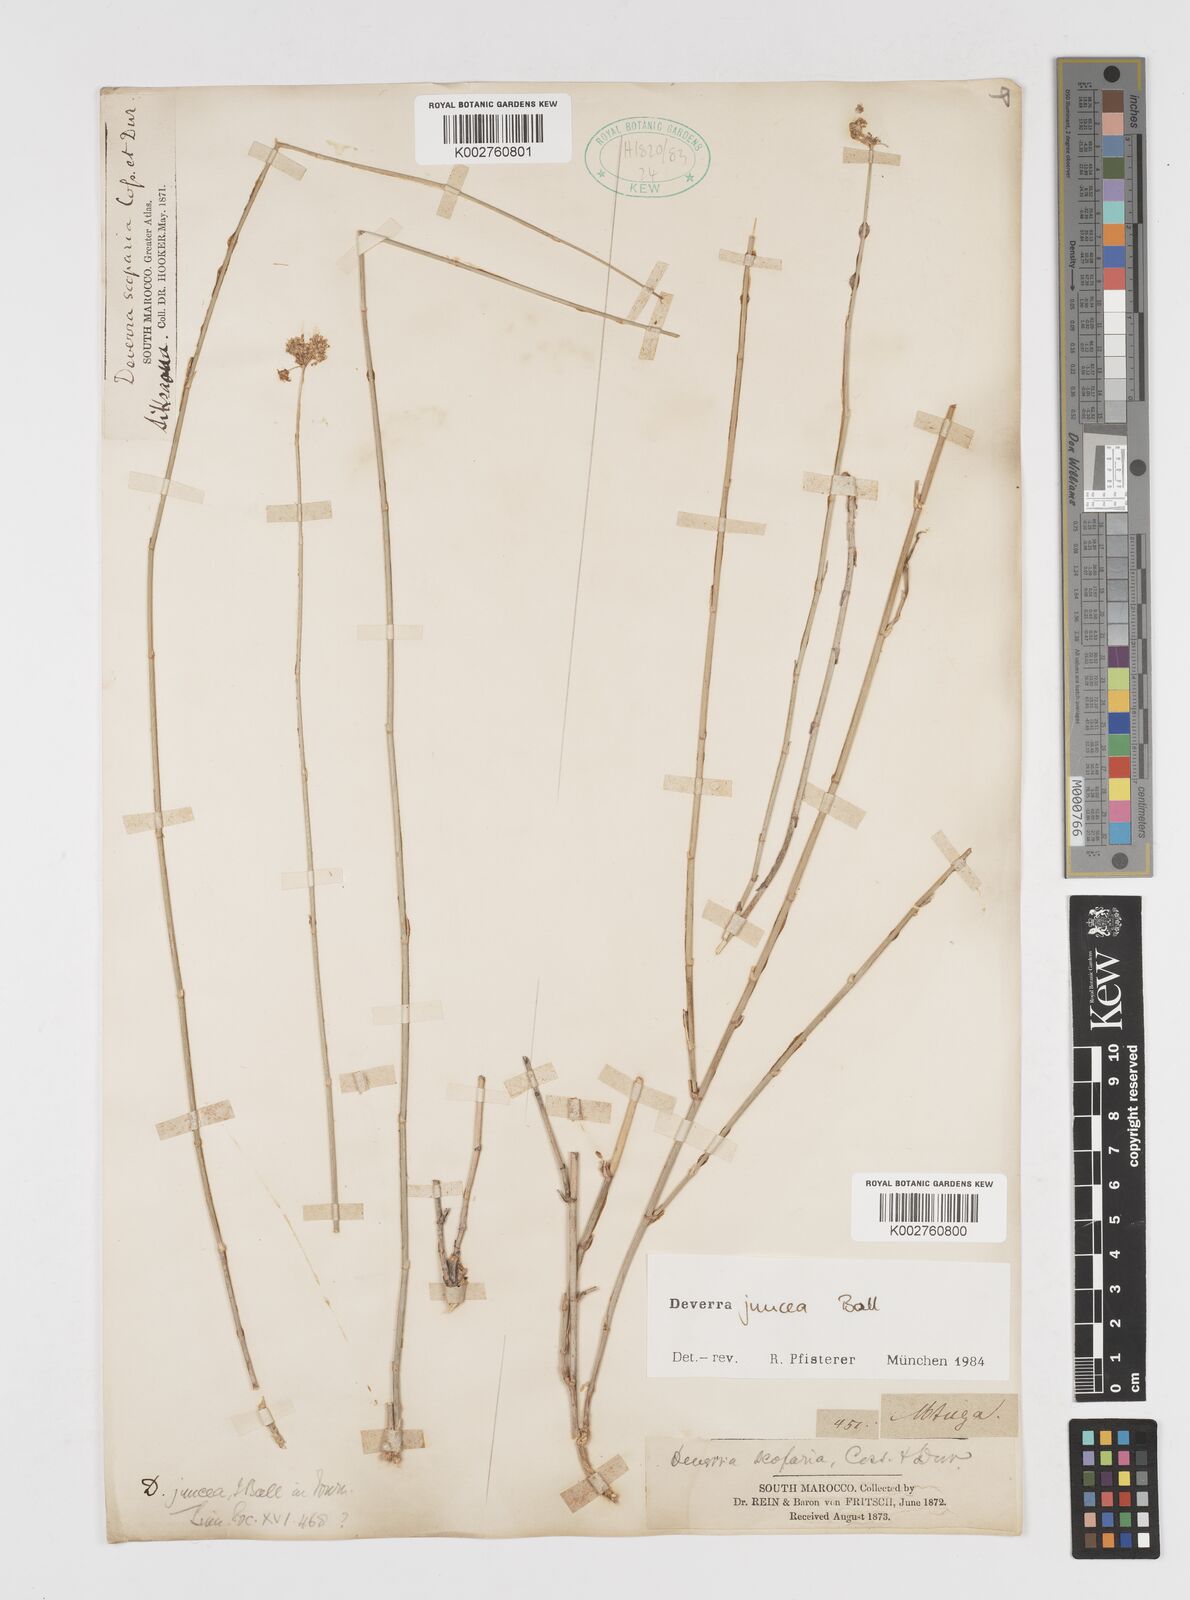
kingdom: Plantae
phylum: Tracheophyta
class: Magnoliopsida
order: Apiales
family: Apiaceae
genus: Deverra
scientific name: Deverra juncea
